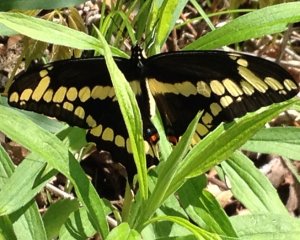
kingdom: Animalia
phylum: Arthropoda
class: Insecta
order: Lepidoptera
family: Papilionidae
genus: Papilio
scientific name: Papilio cresphontes
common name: Eastern Giant Swallowtail
